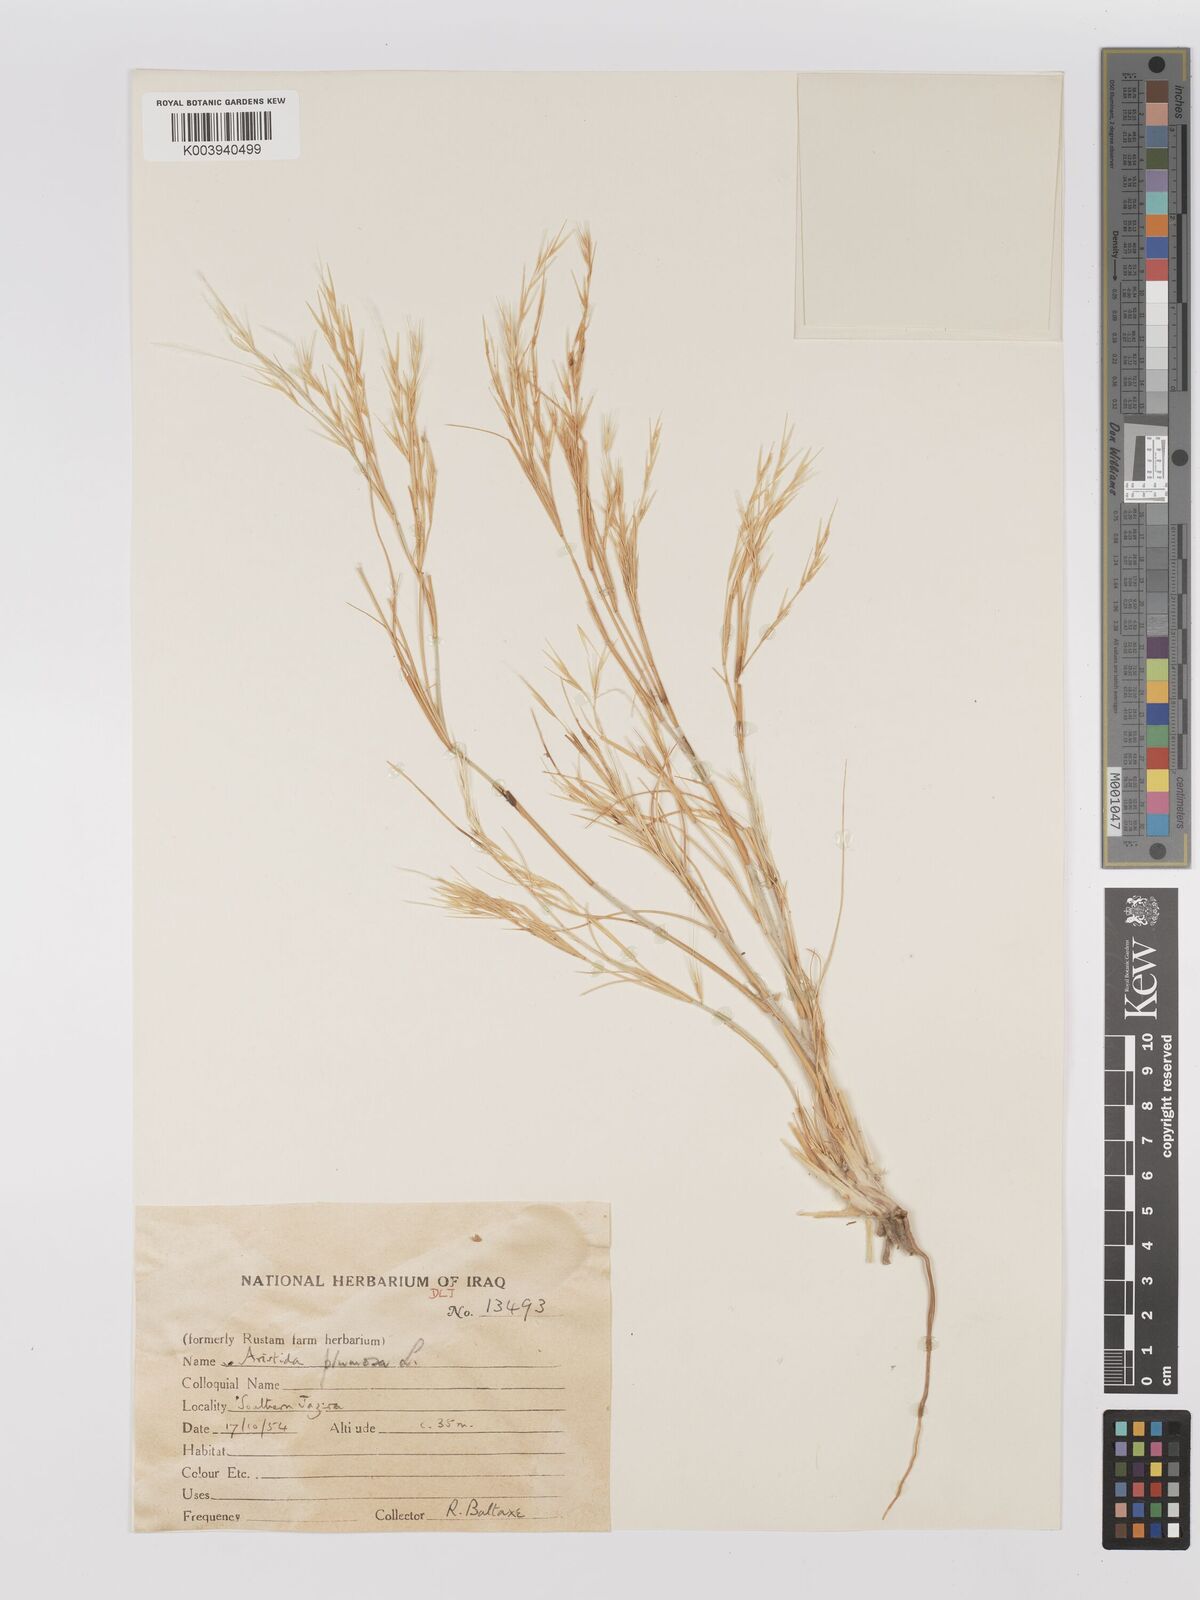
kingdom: Plantae
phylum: Tracheophyta
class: Liliopsida
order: Poales
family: Poaceae
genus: Stipagrostis
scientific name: Stipagrostis plumosa
